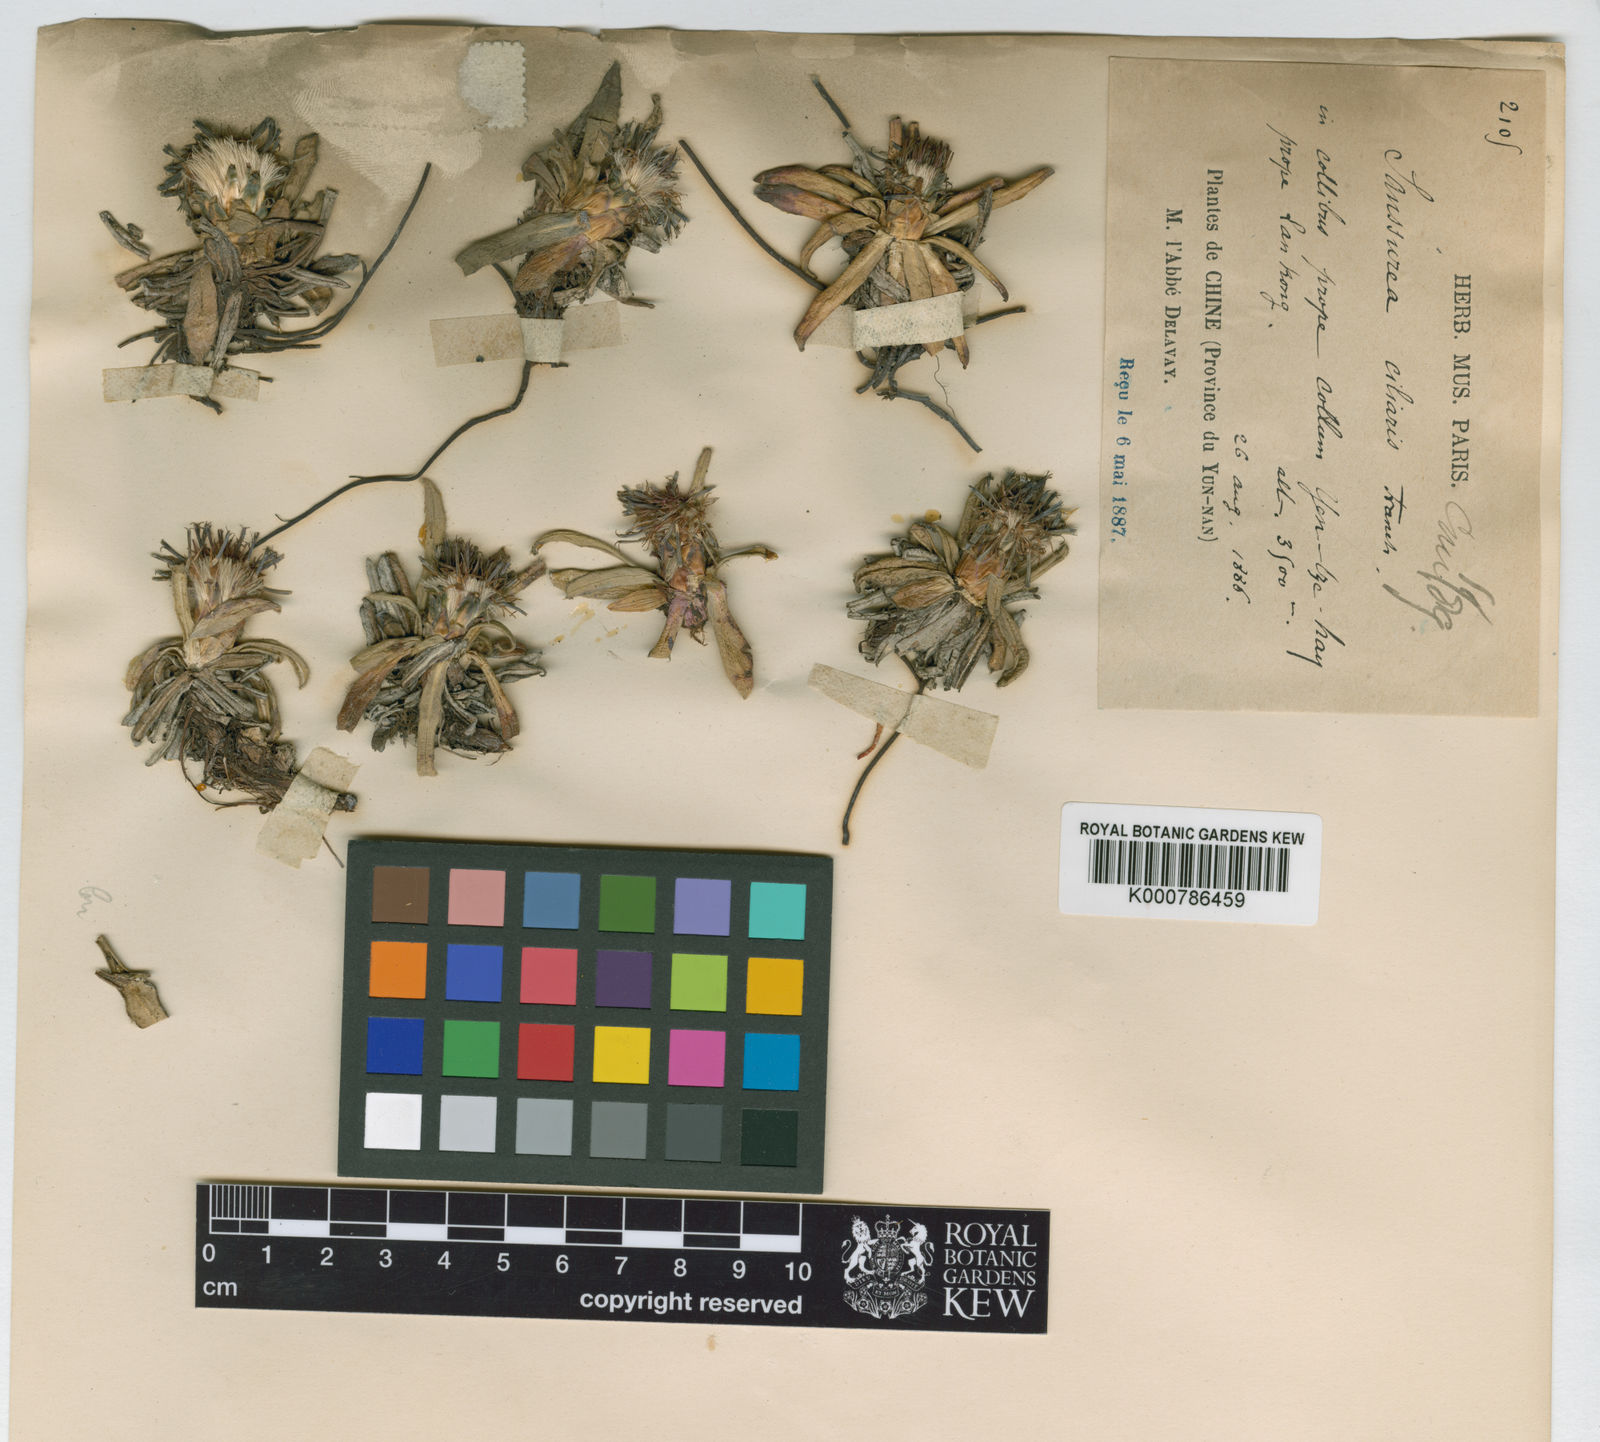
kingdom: Plantae
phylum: Tracheophyta
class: Magnoliopsida
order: Asterales
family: Asteraceae
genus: Saussurea
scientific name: Saussurea ciliaris
